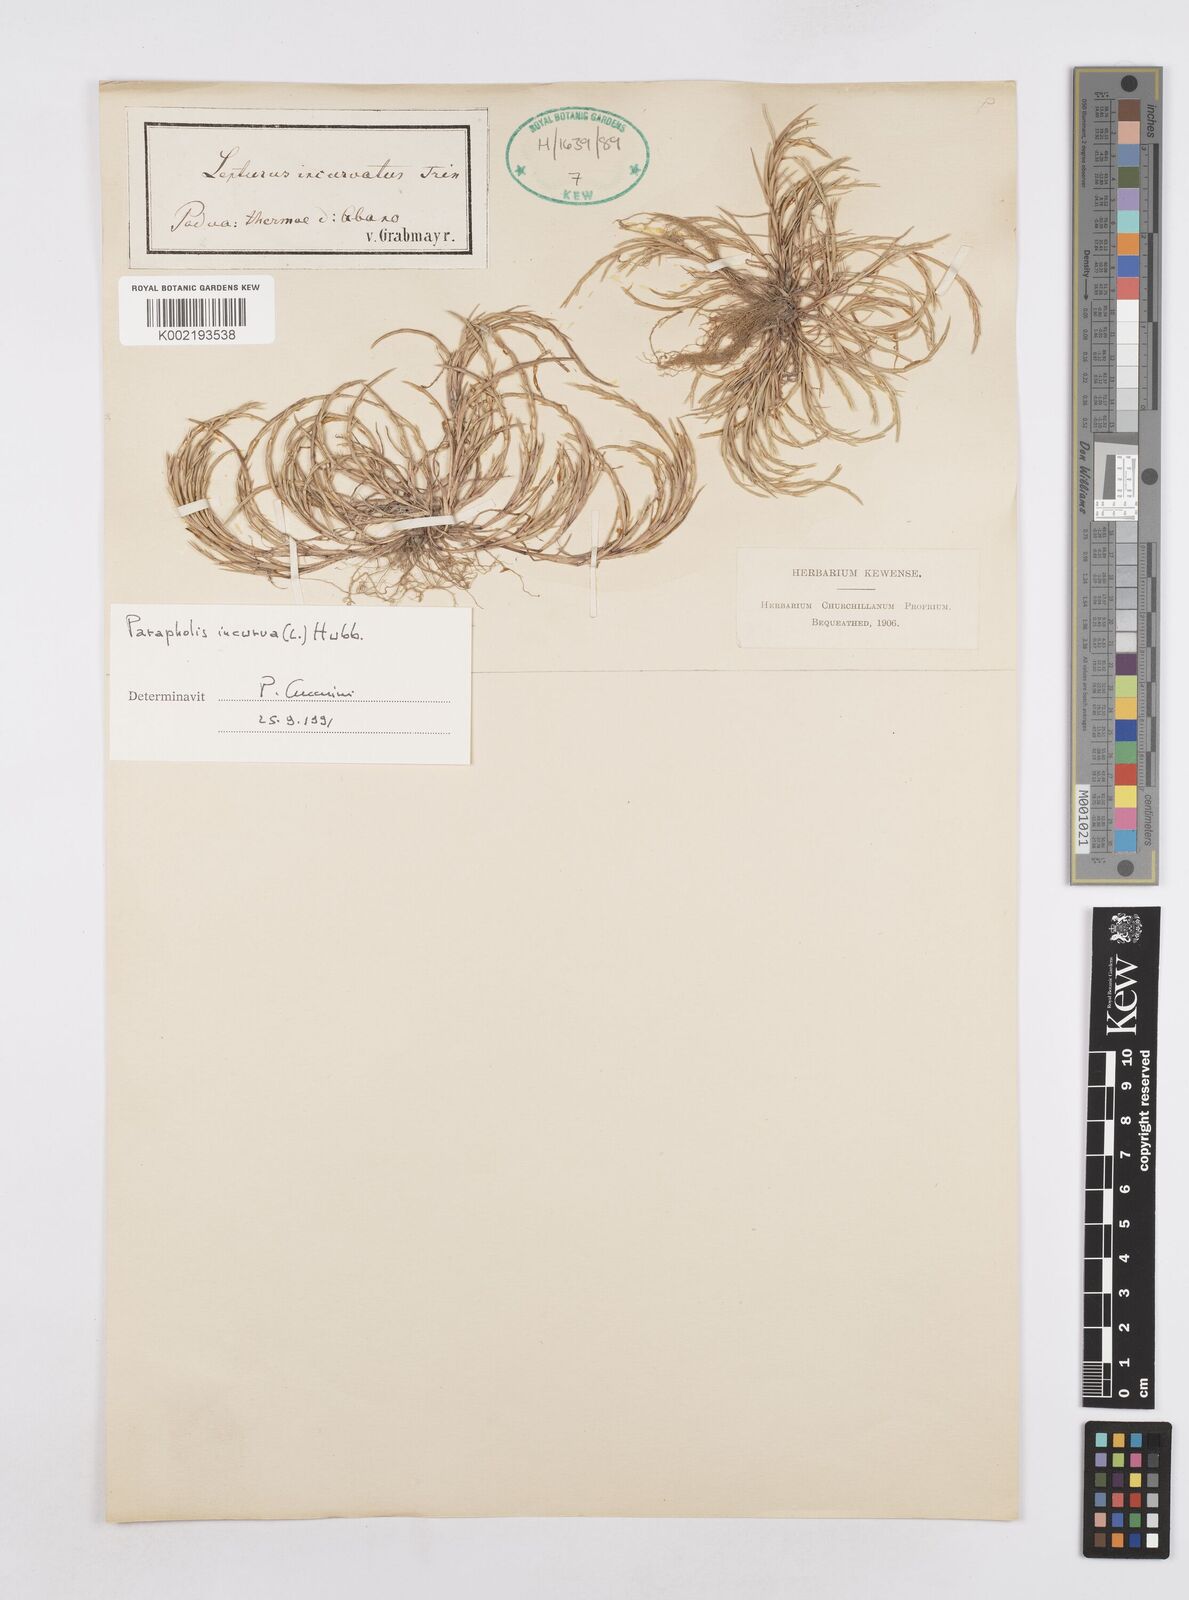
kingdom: Plantae
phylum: Tracheophyta
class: Liliopsida
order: Poales
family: Poaceae
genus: Parapholis
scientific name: Parapholis incurva
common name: Curved sicklegrass
